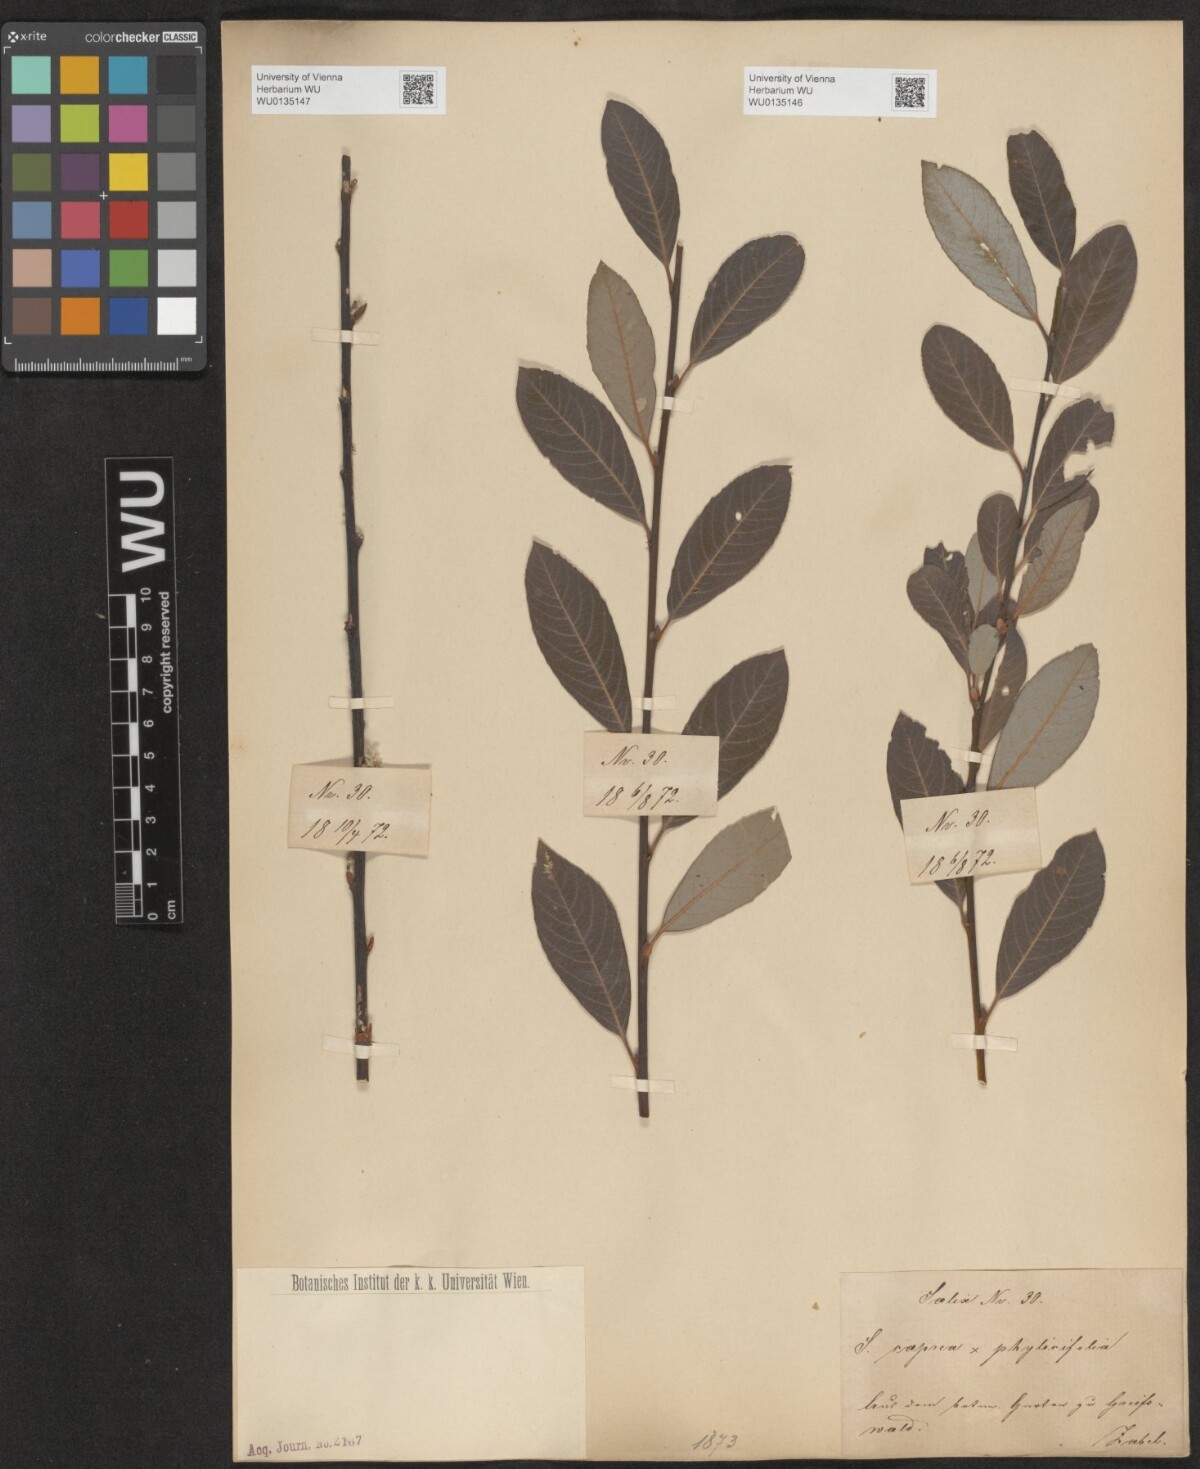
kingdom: Plantae
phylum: Tracheophyta
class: Magnoliopsida
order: Malpighiales
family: Salicaceae
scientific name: Salicaceae
